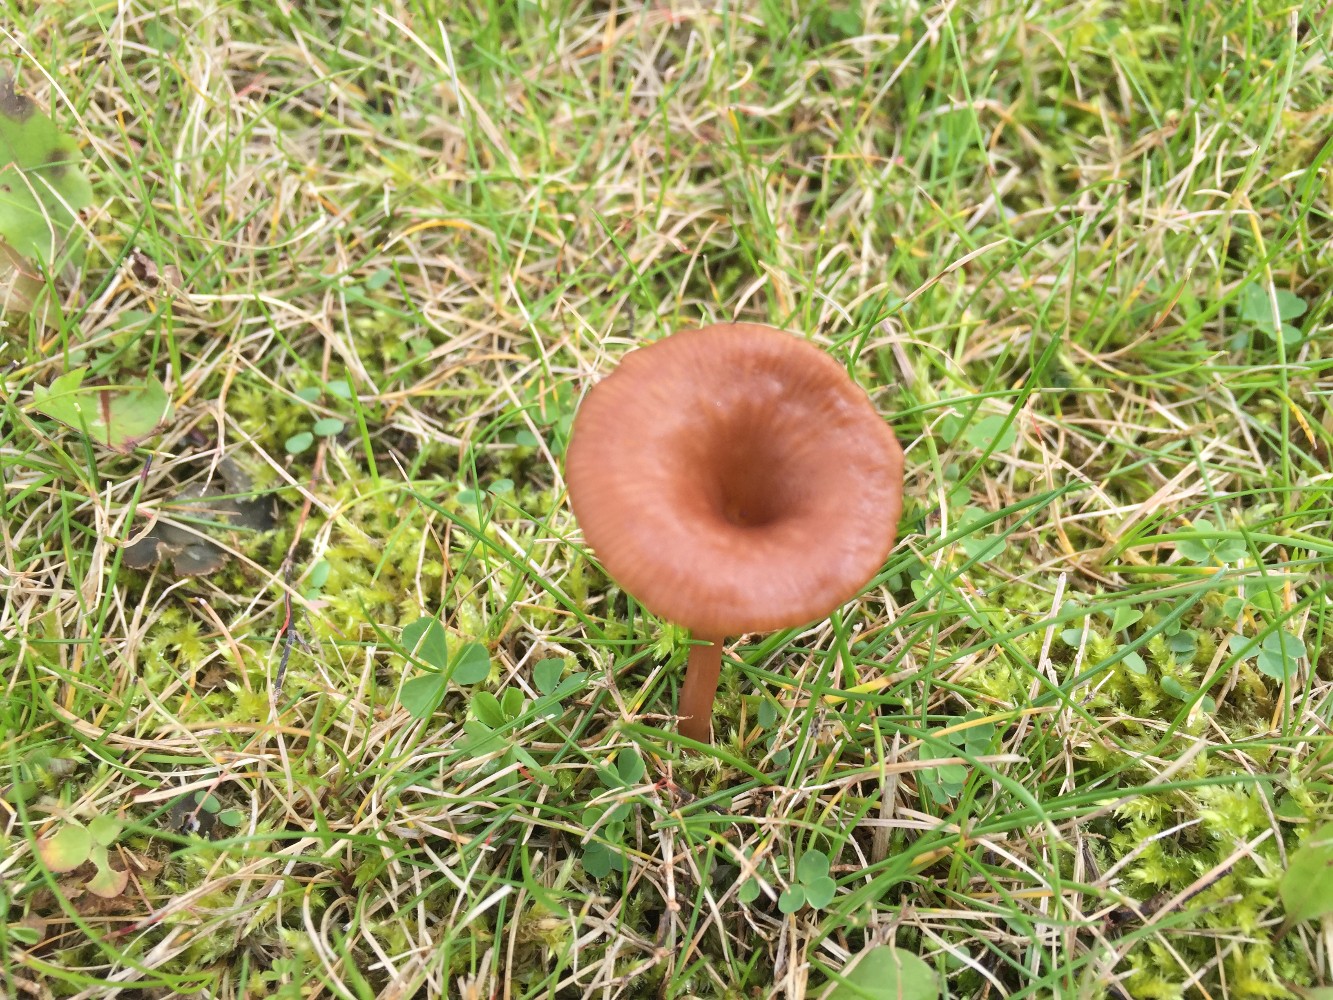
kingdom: Fungi
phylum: Basidiomycota
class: Agaricomycetes
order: Agaricales
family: Tricholomataceae
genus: Omphalina
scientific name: Omphalina pyxidata
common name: rødbrun navlehat
